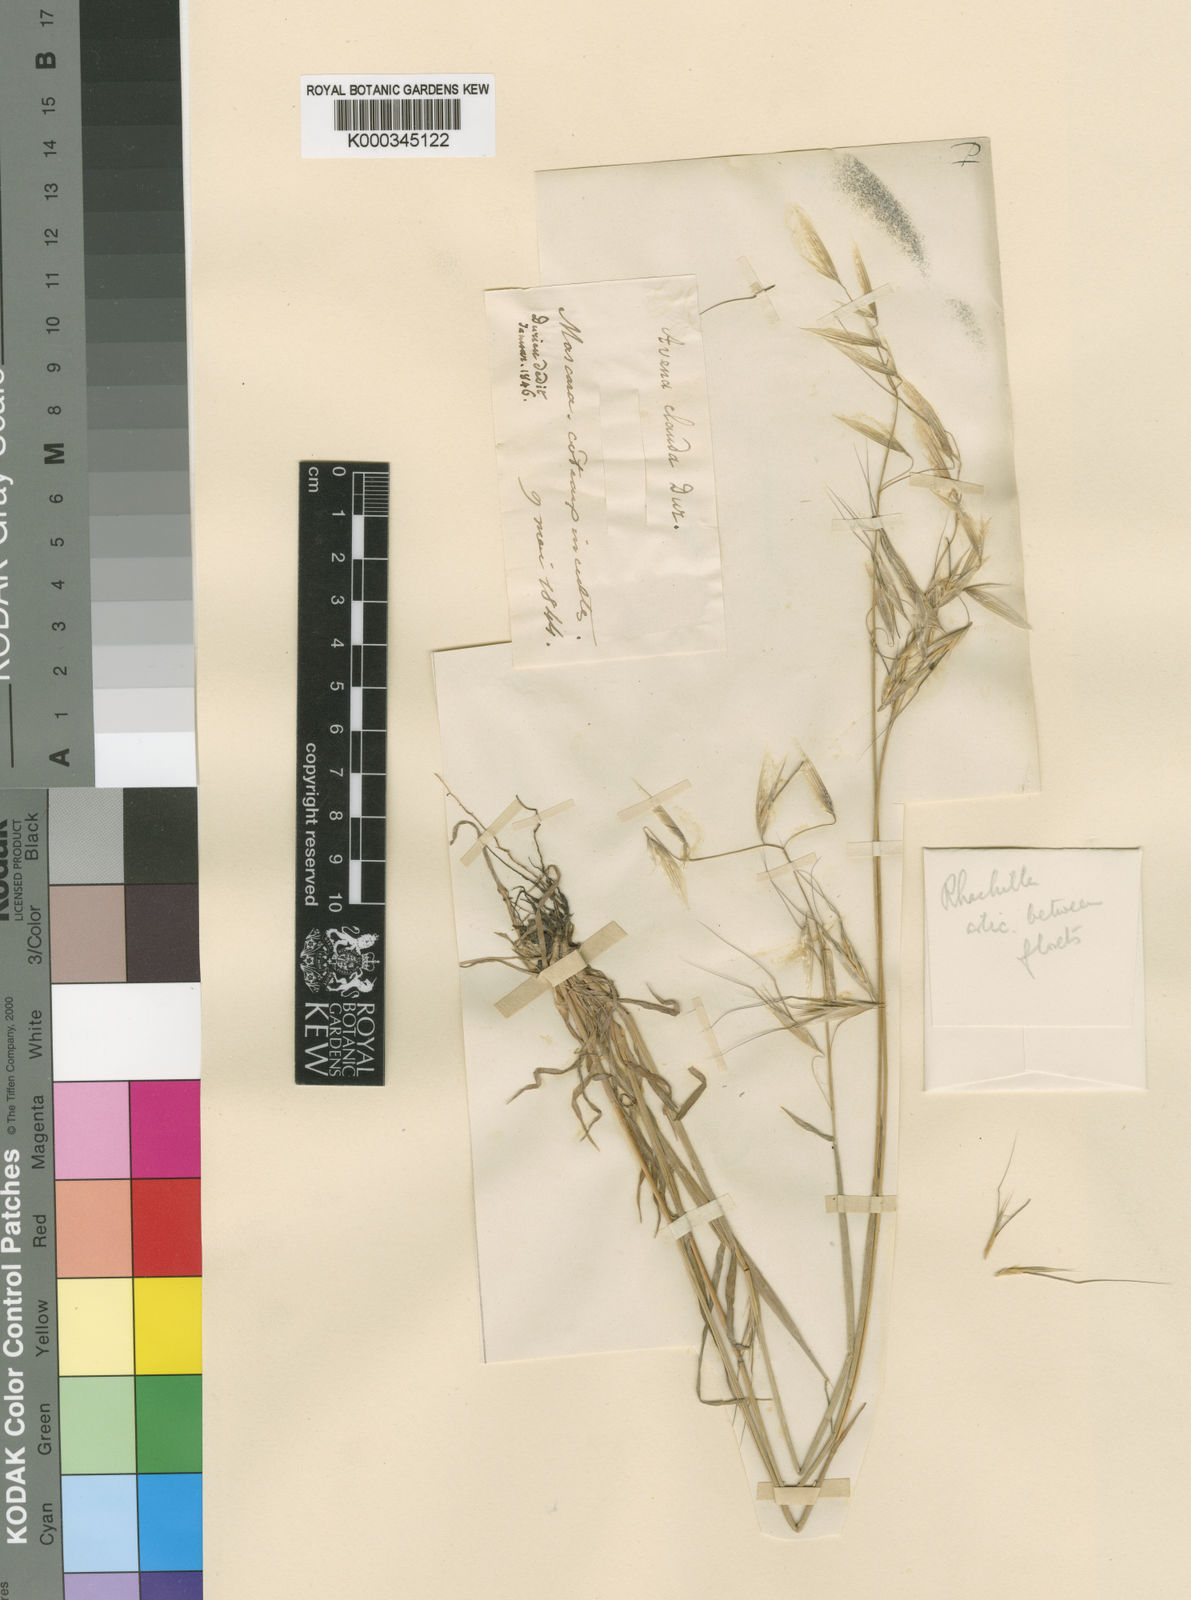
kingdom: Plantae
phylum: Tracheophyta
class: Liliopsida
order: Poales
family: Poaceae
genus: Avena
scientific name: Avena clauda
